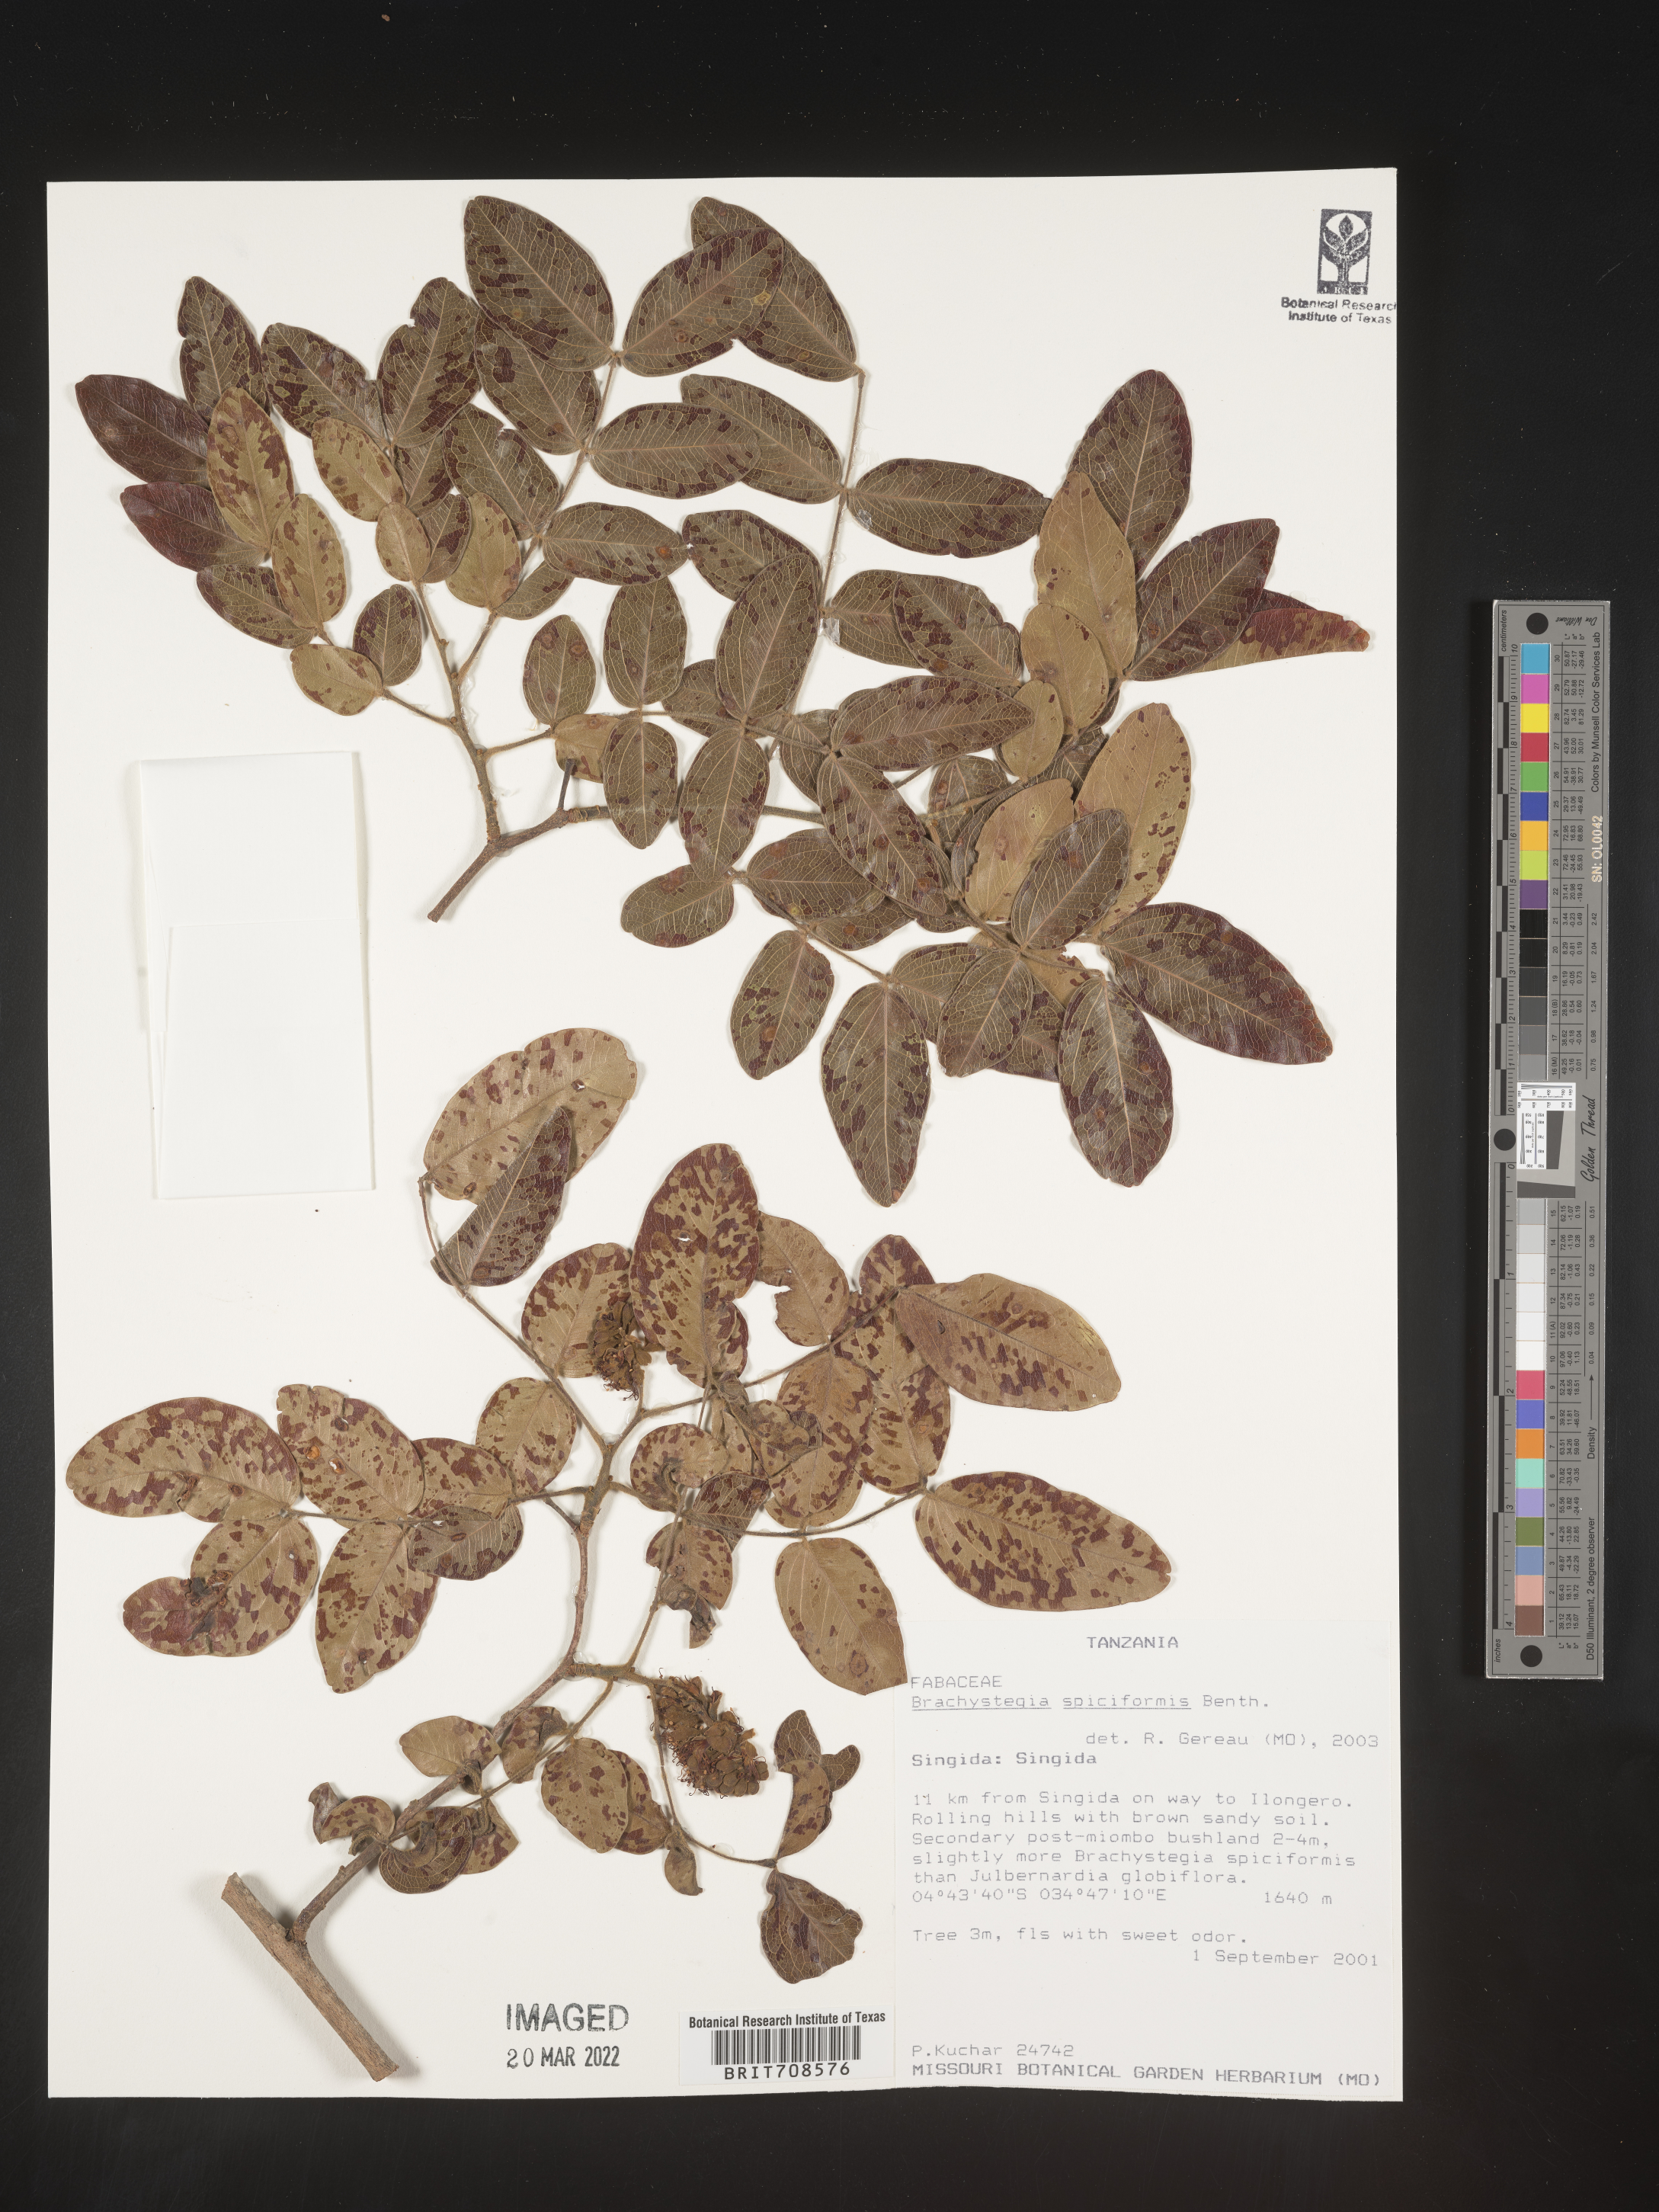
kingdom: Plantae
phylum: Tracheophyta
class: Magnoliopsida
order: Fabales
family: Fabaceae
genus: Brachystegia
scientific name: Brachystegia
